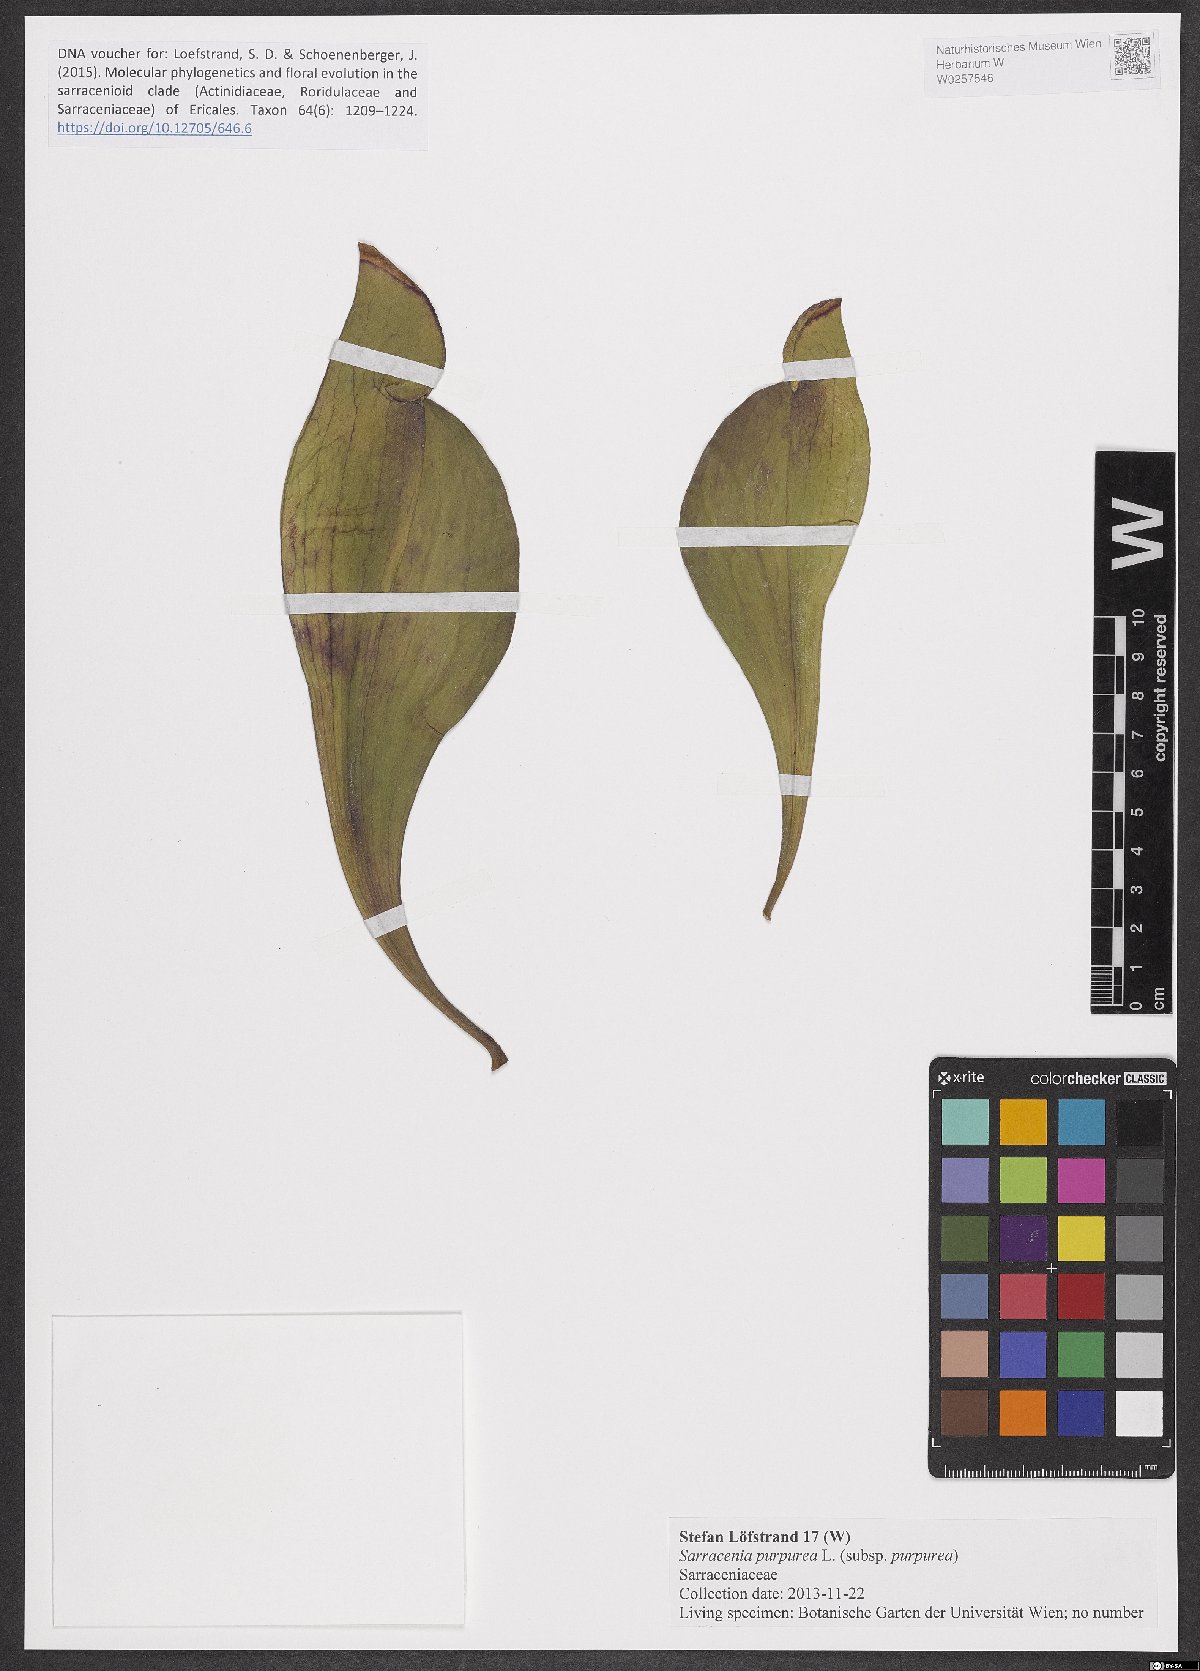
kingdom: Plantae
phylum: Tracheophyta
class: Magnoliopsida
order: Ericales
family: Sarraceniaceae
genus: Sarracenia
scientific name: Sarracenia purpurea
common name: Pitcherplant
